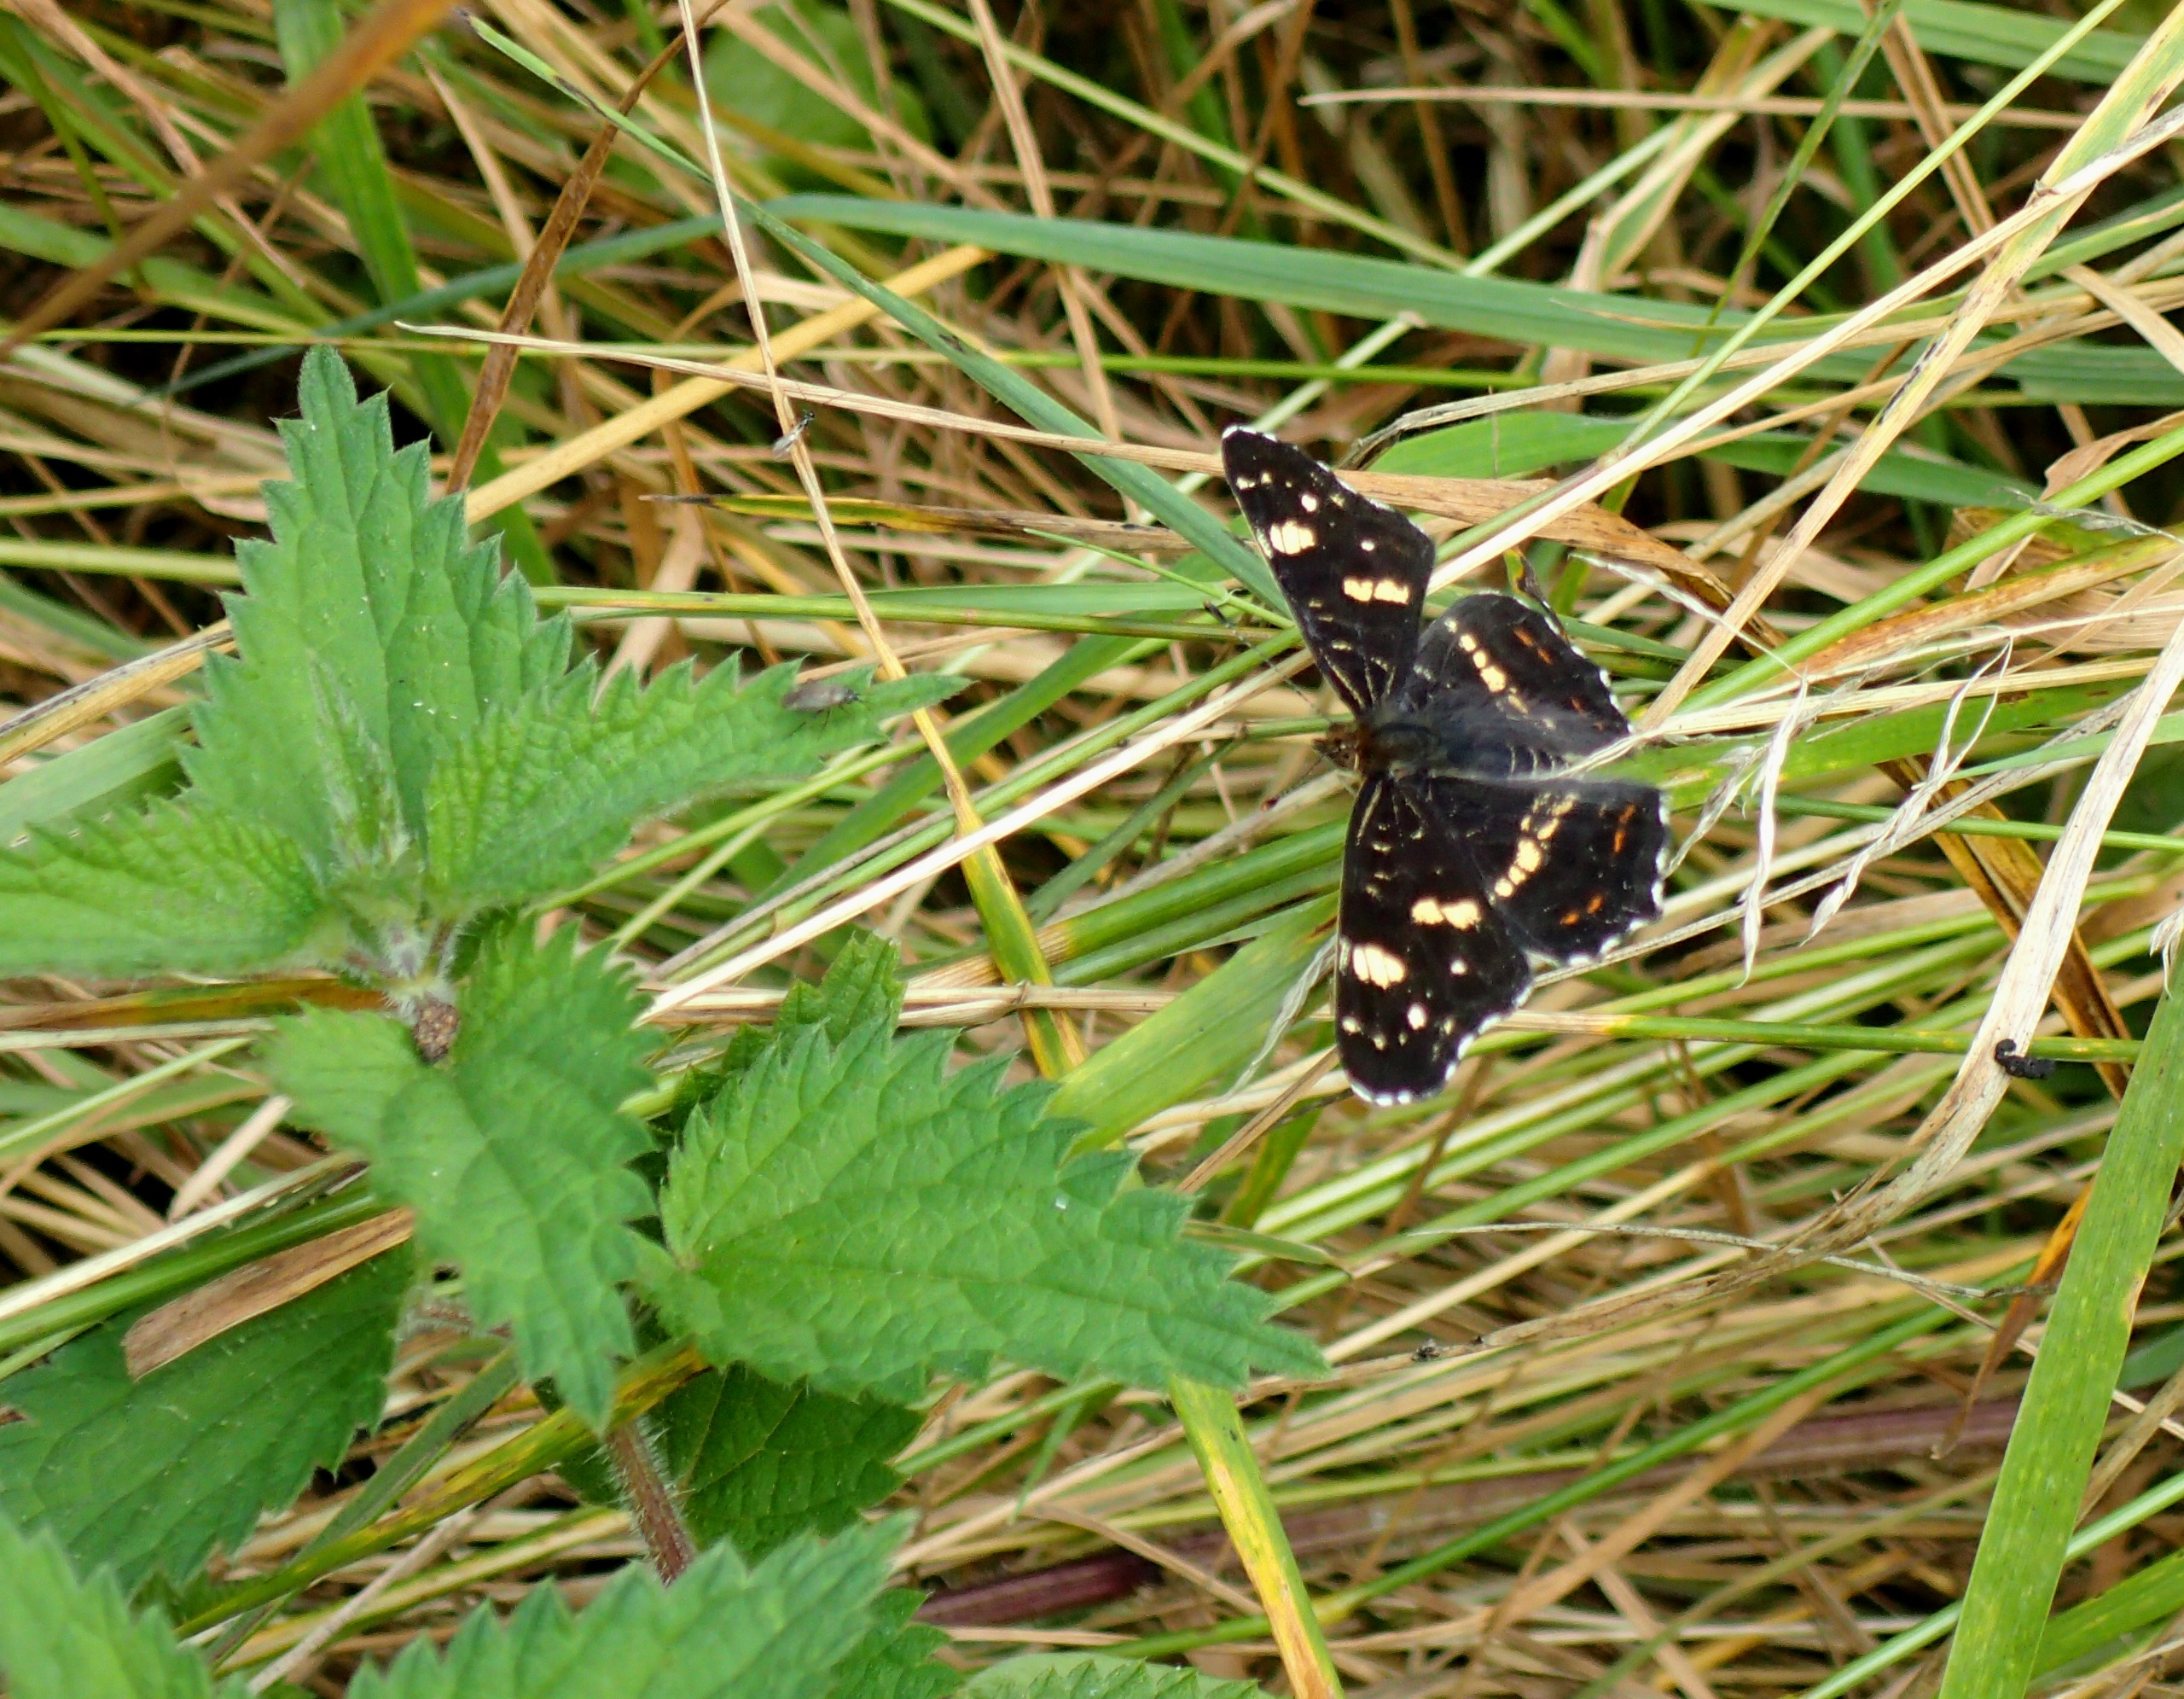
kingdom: Animalia
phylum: Arthropoda
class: Insecta
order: Lepidoptera
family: Nymphalidae
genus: Araschnia
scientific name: Araschnia levana
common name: Nældesommerfugl
